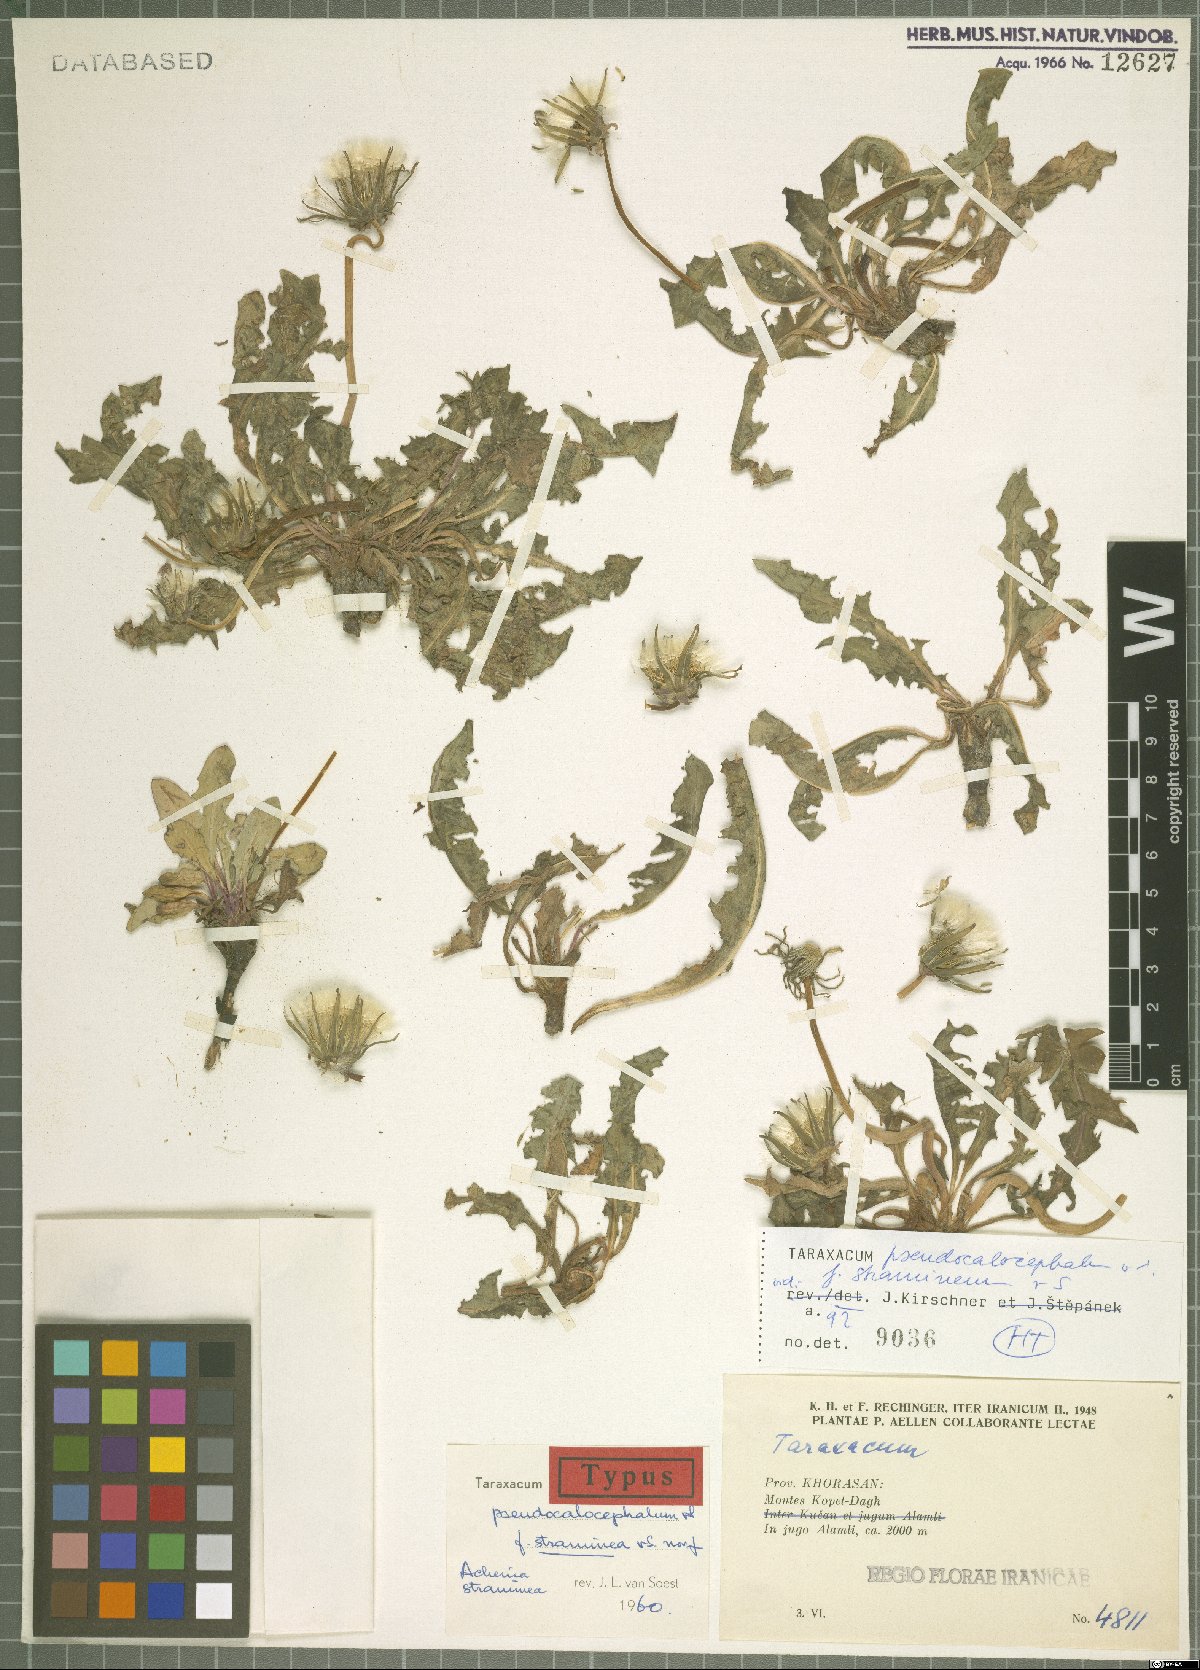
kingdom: Plantae
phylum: Tracheophyta
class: Magnoliopsida
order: Asterales
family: Asteraceae
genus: Taraxacum
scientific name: Taraxacum pseudocalocephalum
